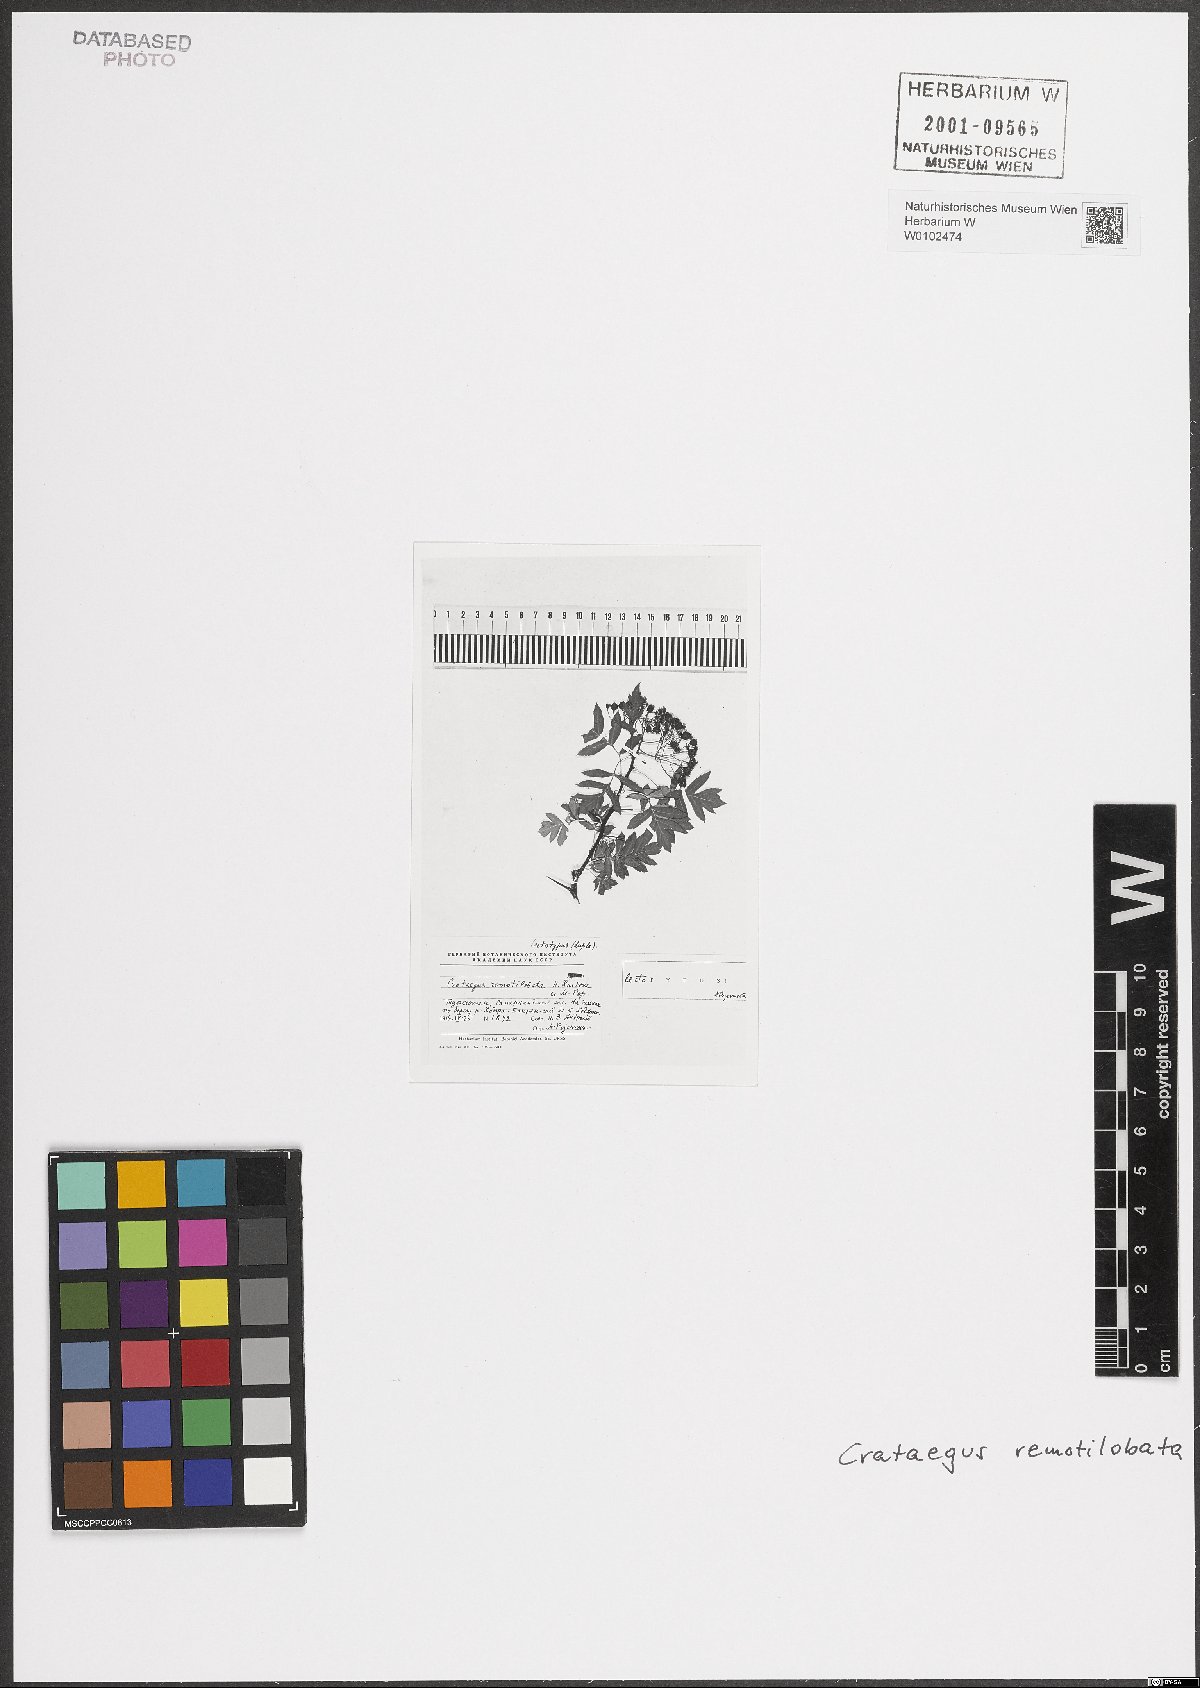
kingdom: Plantae
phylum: Tracheophyta
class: Magnoliopsida
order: Rosales
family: Rosaceae
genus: Crataegus
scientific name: Crataegus remotilobata
